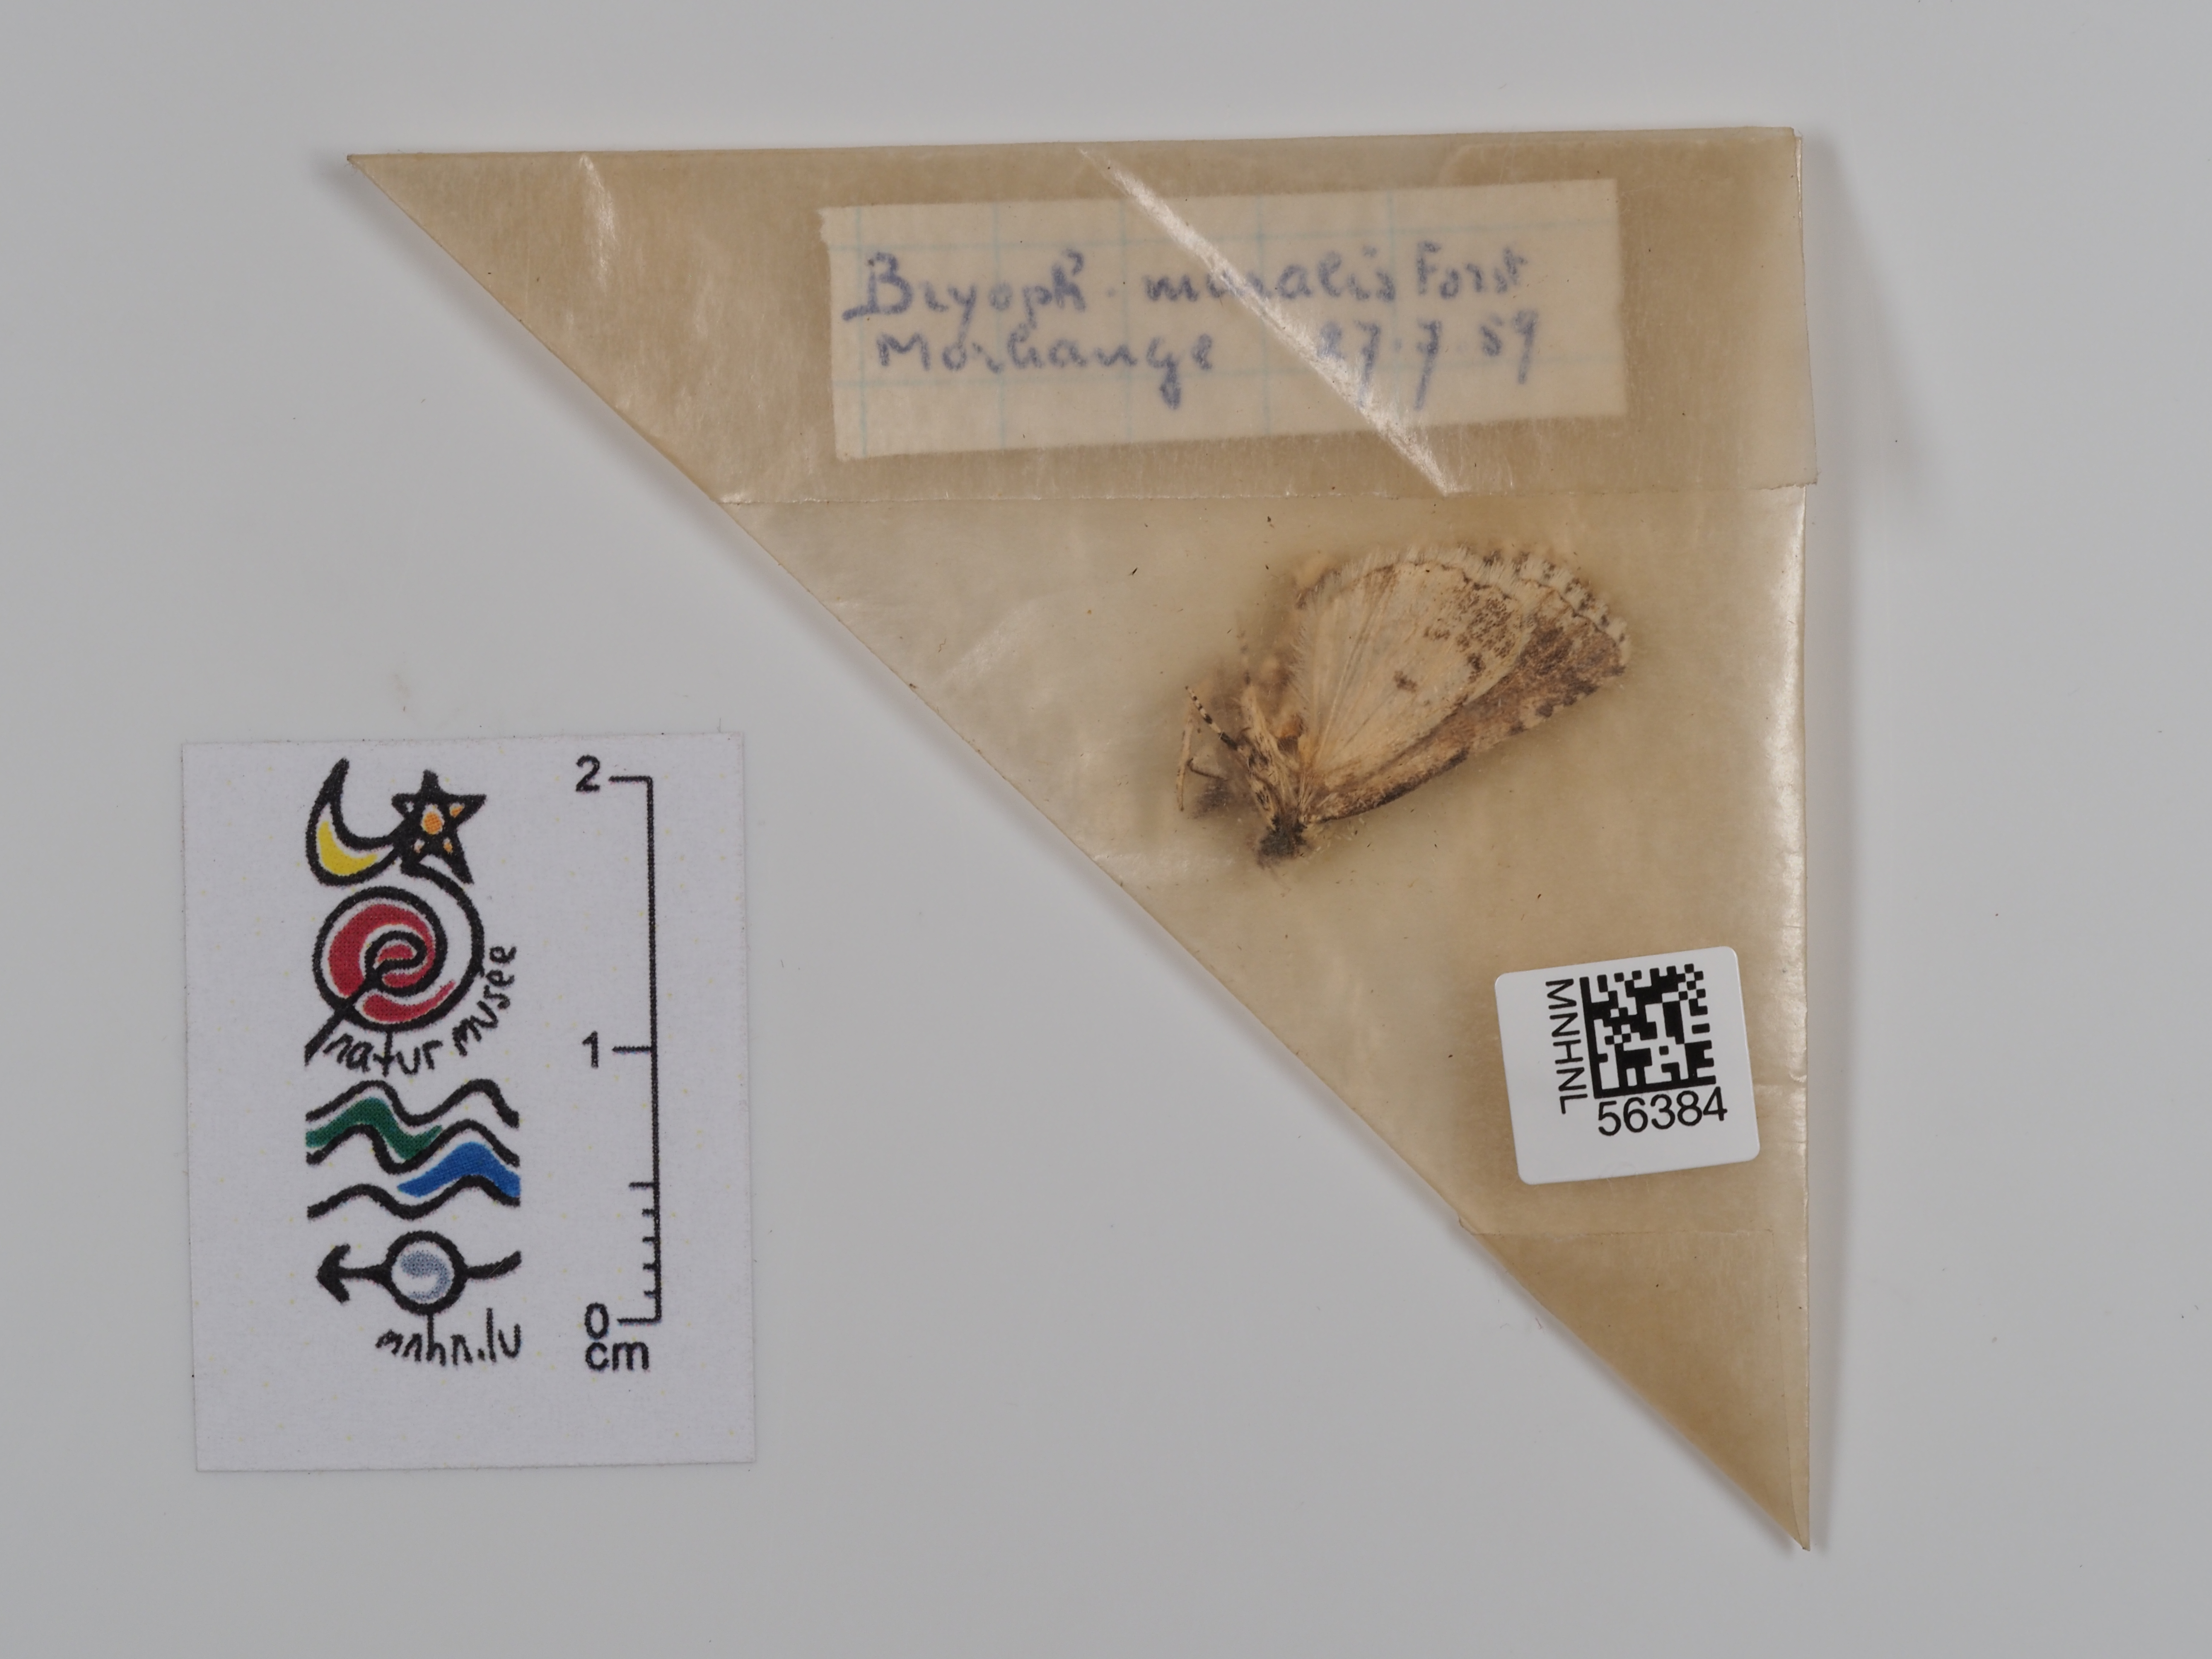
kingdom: Animalia
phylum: Arthropoda
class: Insecta
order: Lepidoptera
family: Noctuidae
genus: Nyctobrya
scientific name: Nyctobrya muralis
